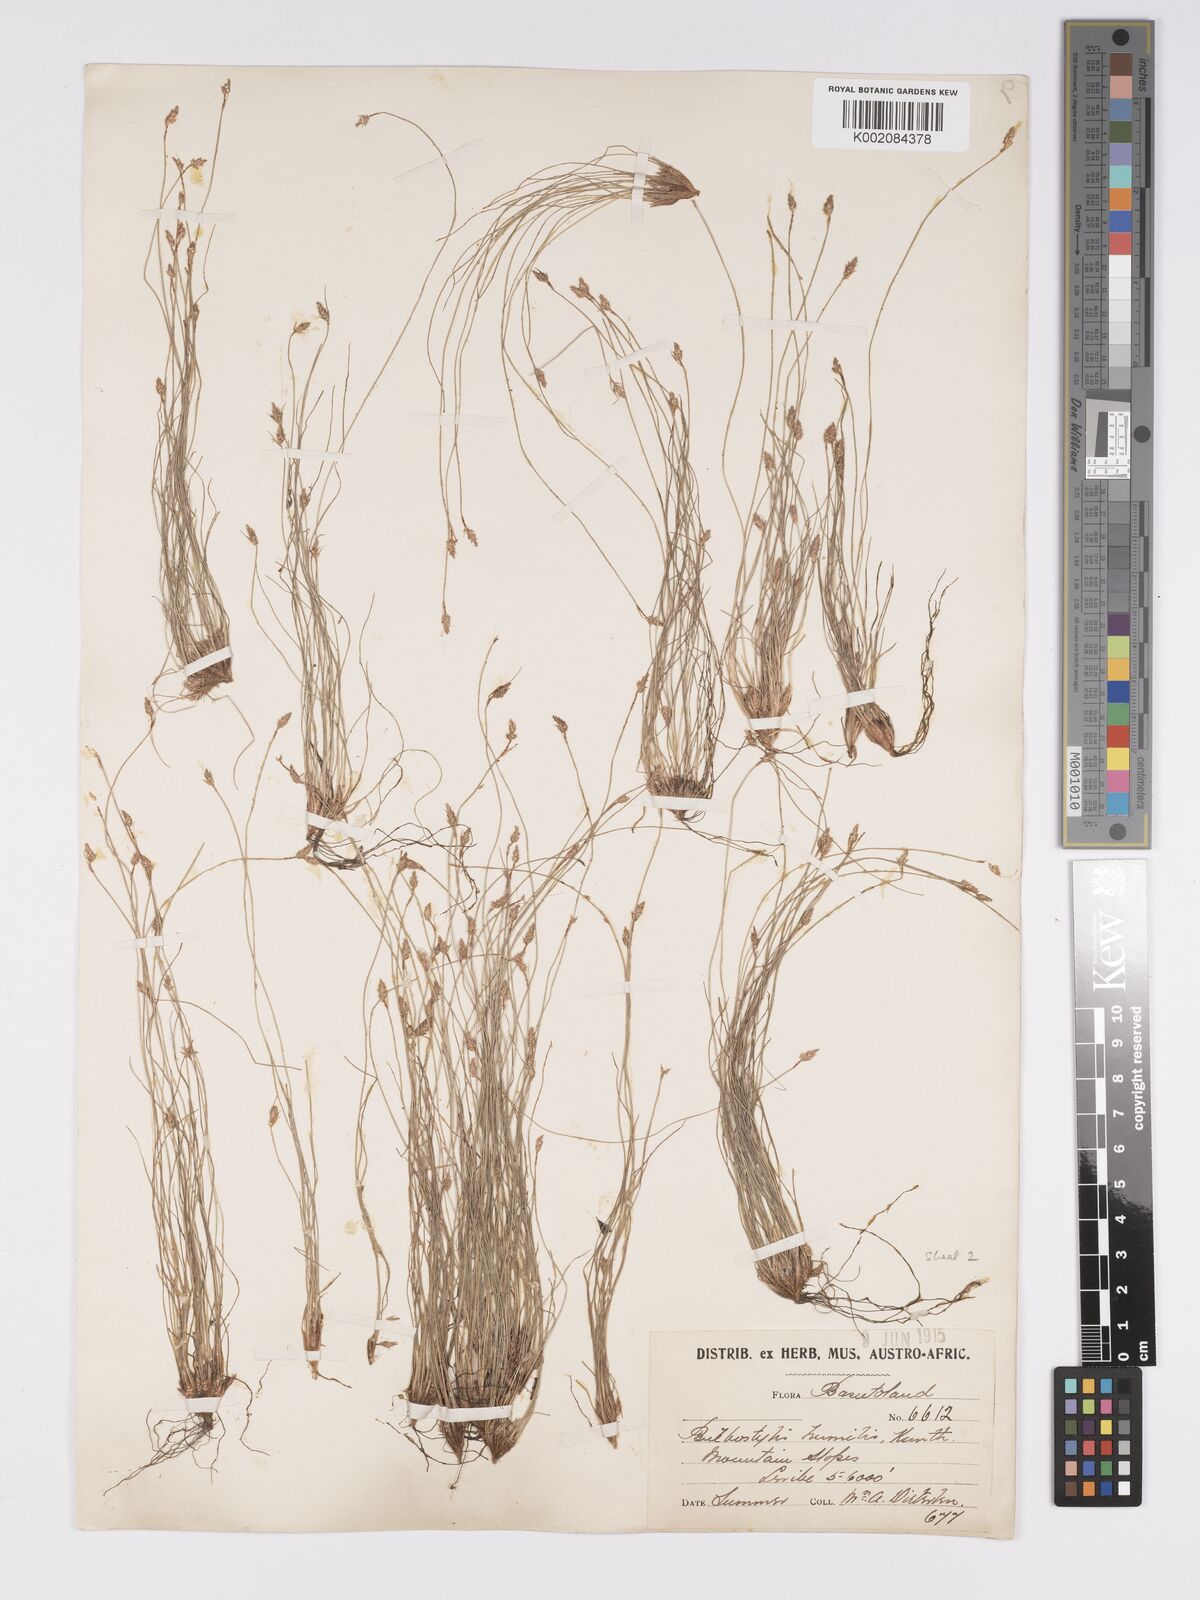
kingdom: Plantae
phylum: Tracheophyta
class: Liliopsida
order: Poales
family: Cyperaceae
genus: Bulbostylis
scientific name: Bulbostylis humilis
